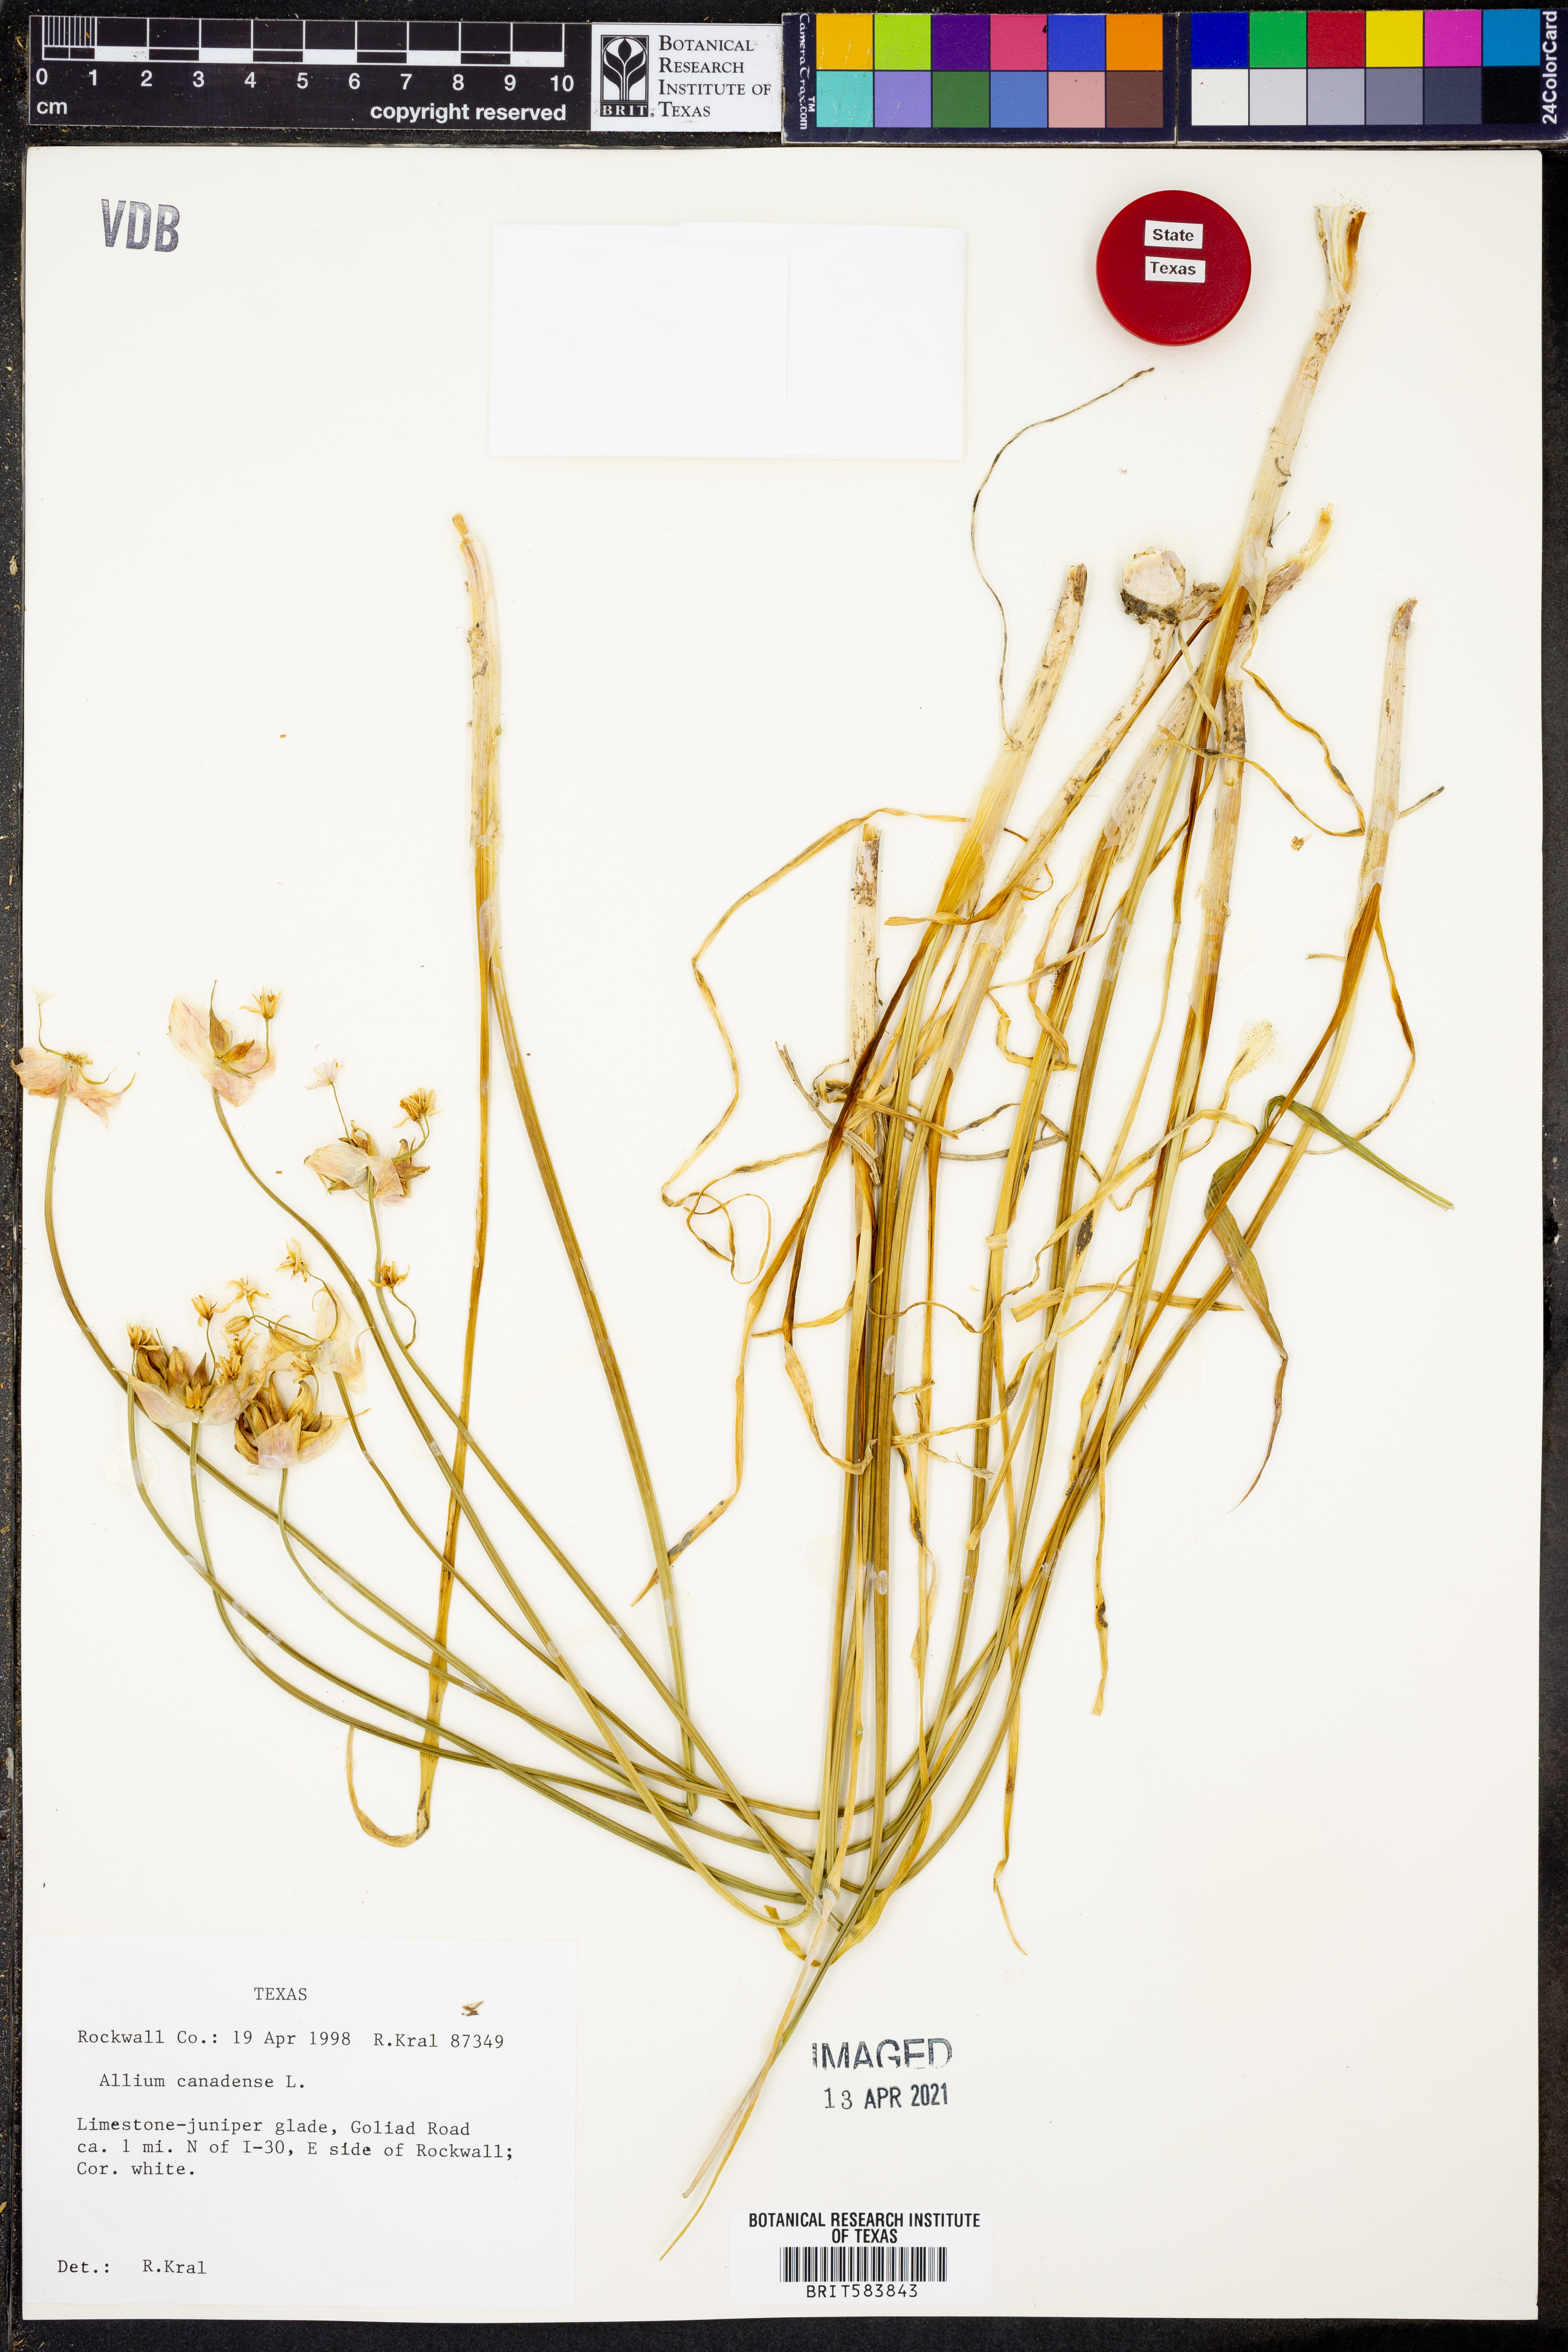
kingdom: Plantae
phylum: Tracheophyta
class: Liliopsida
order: Asparagales
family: Amaryllidaceae
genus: Allium
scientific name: Allium canadense
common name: Meadow garlic
